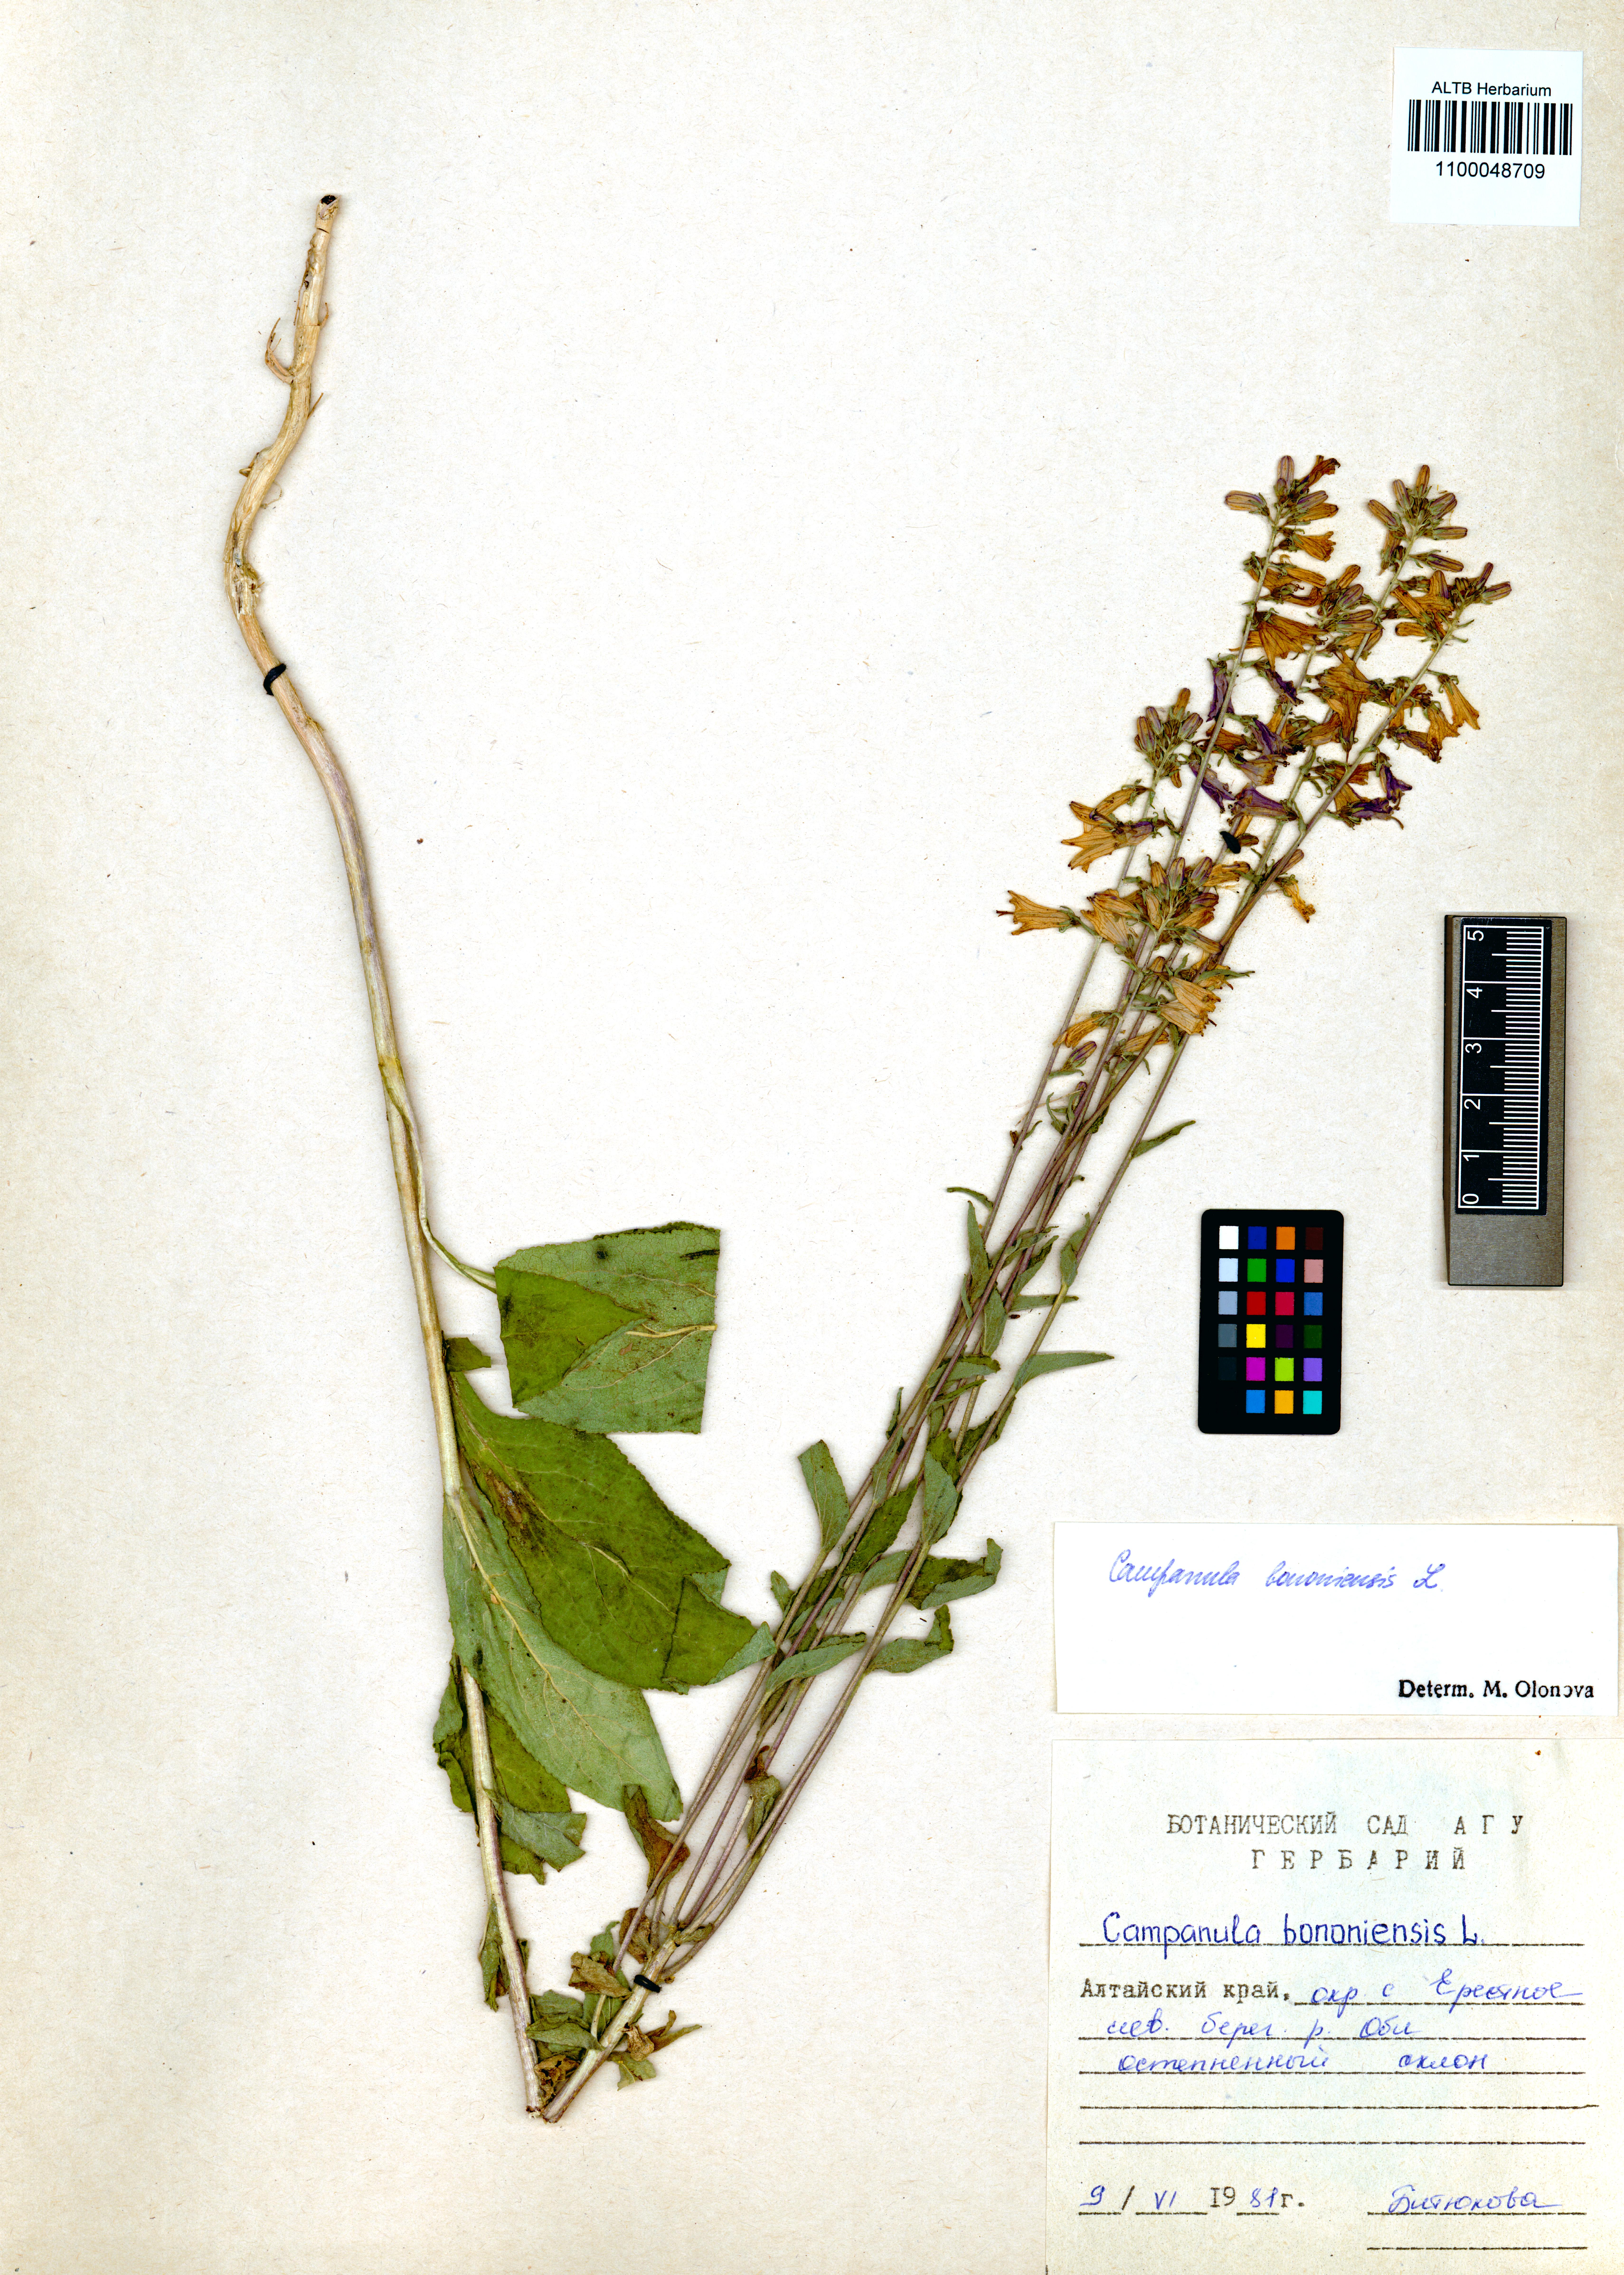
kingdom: Plantae
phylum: Tracheophyta
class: Magnoliopsida
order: Asterales
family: Campanulaceae
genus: Campanula
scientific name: Campanula bononiensis
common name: Pale bellflower
